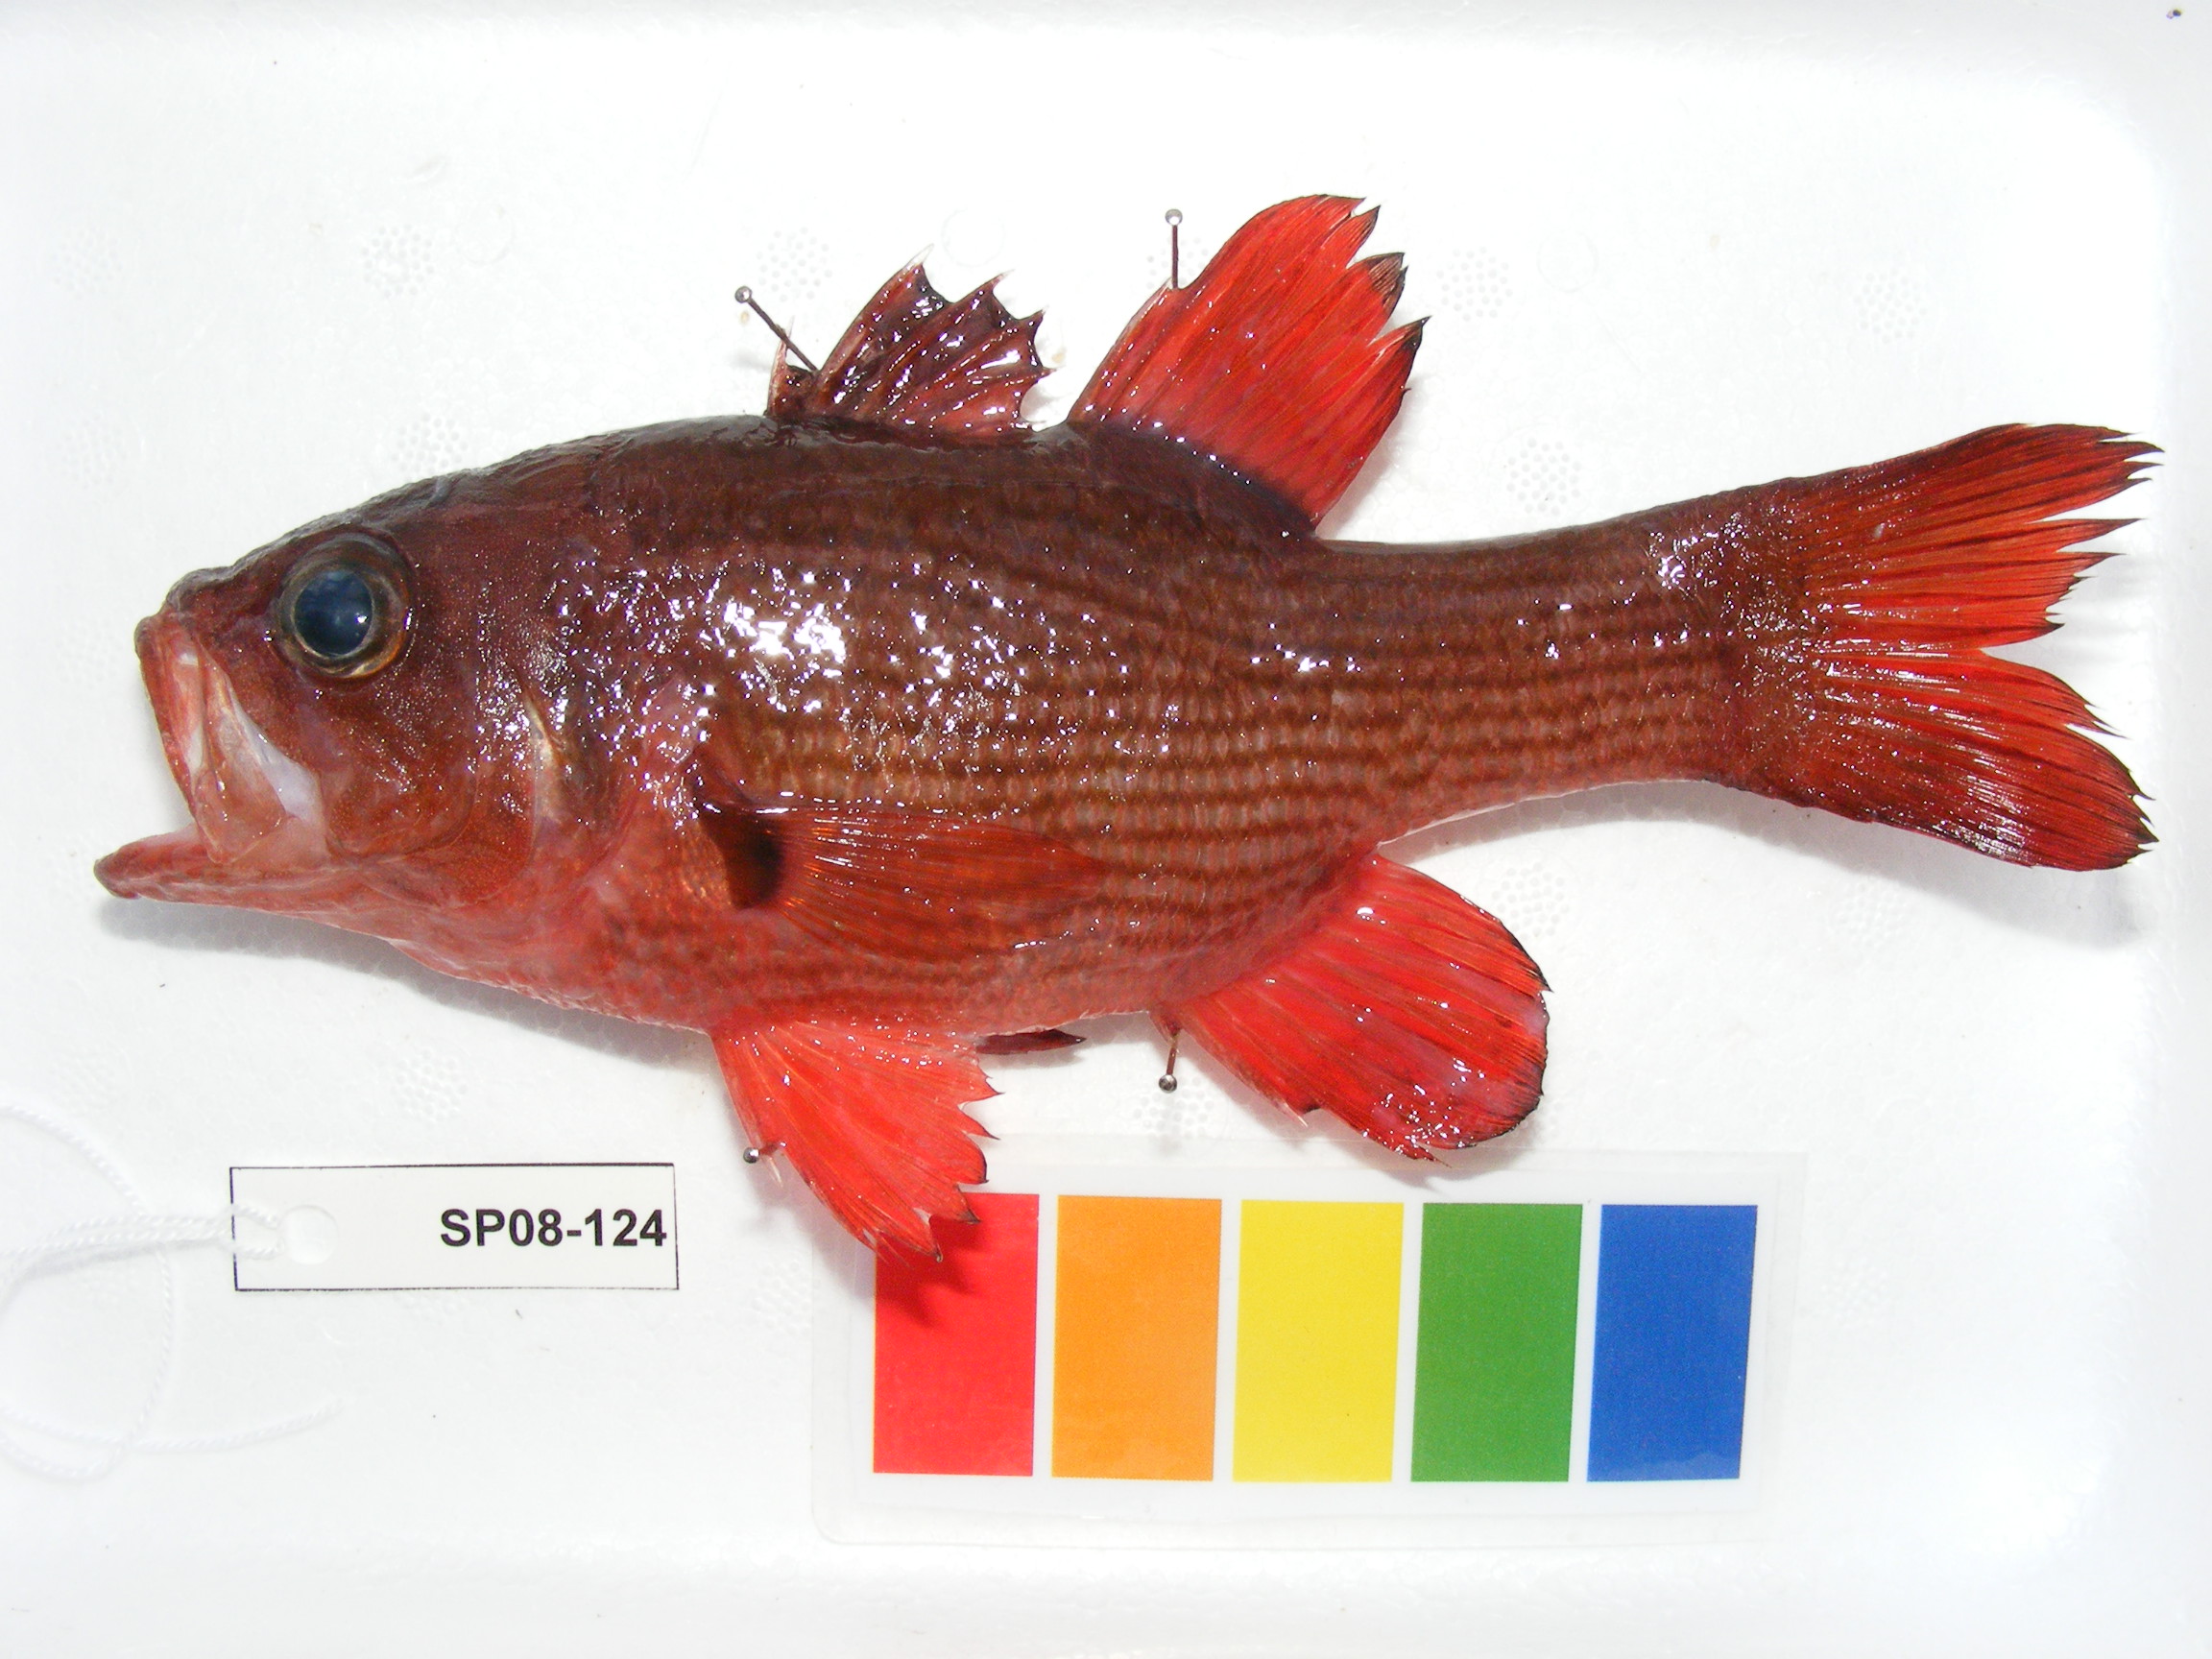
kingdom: Animalia
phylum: Chordata
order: Perciformes
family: Apogonidae
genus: Lepidamia
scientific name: Lepidamia natalensis
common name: Smallscale cardinal
